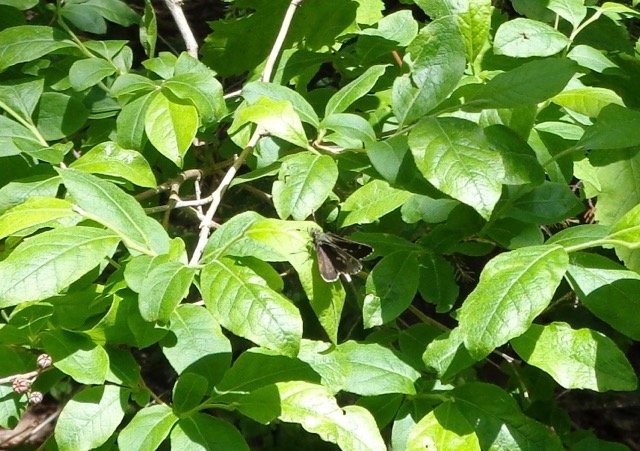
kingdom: Animalia
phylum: Arthropoda
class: Insecta
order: Lepidoptera
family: Hesperiidae
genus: Mastor
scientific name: Mastor hegon
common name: Pepper and Salt Skipper
